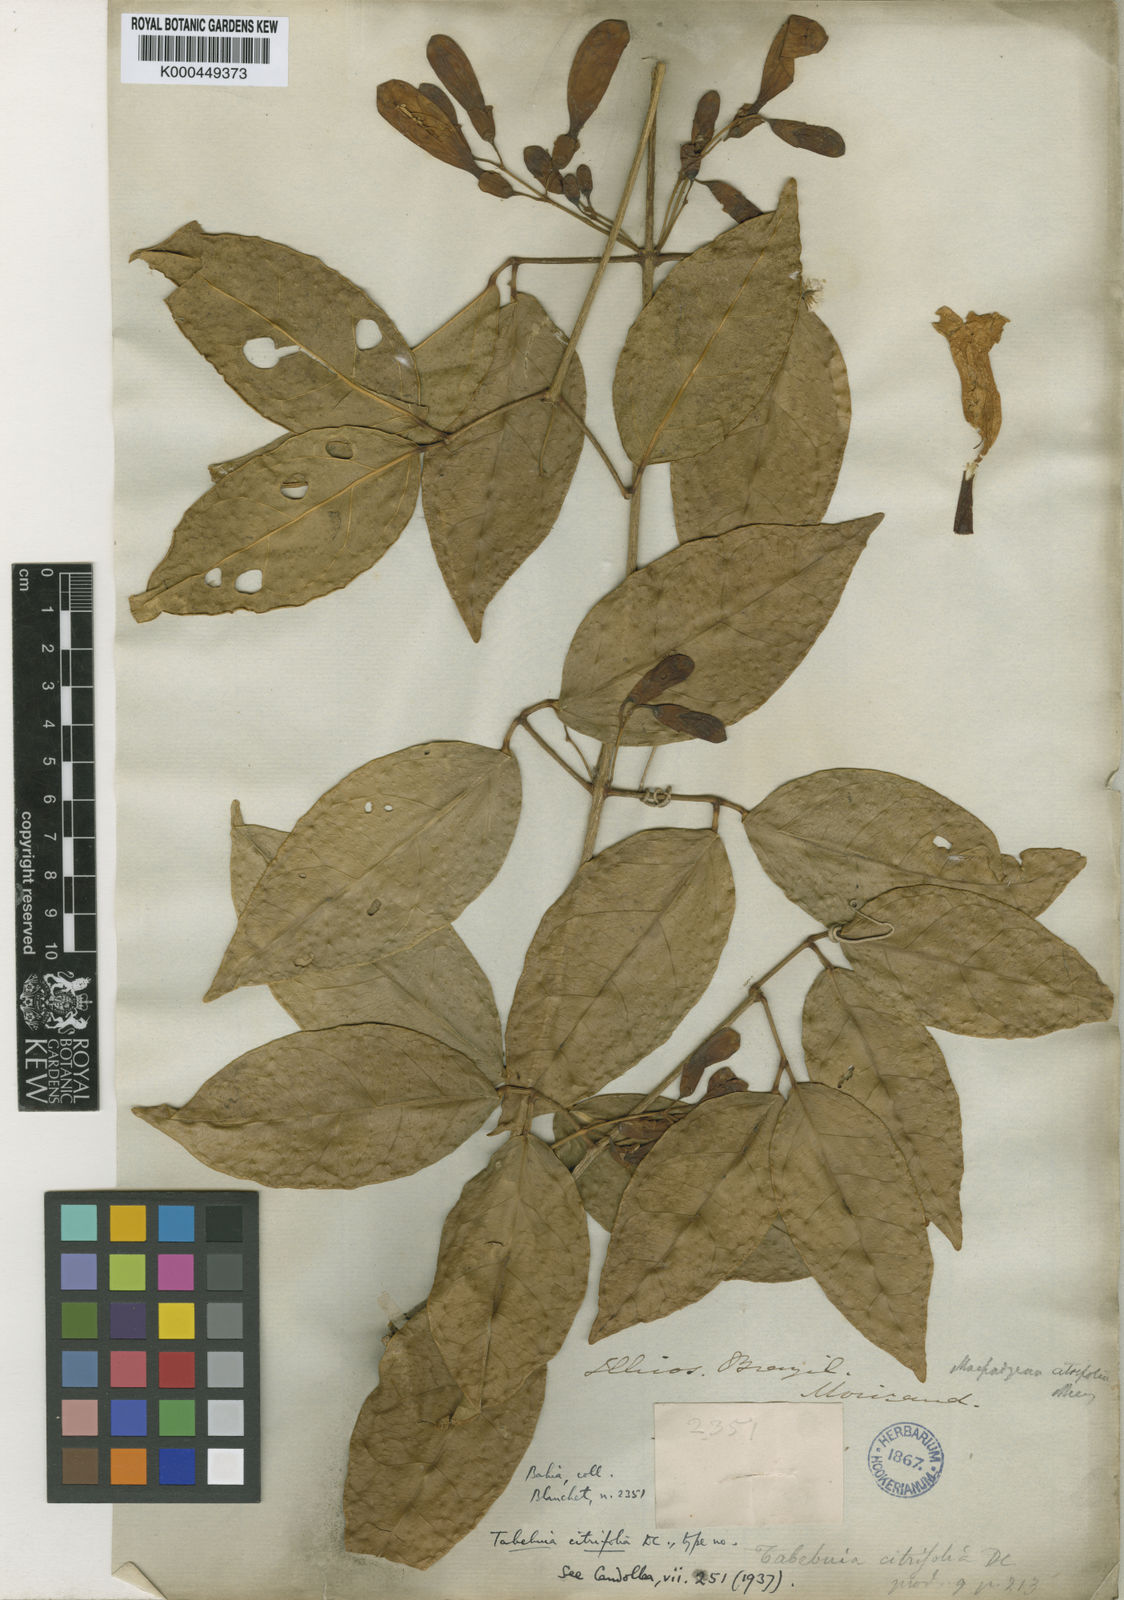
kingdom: Plantae
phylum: Tracheophyta
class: Magnoliopsida
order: Lamiales
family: Bignoniaceae
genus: Anemopaegma
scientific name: Anemopaegma chamberlaynii
